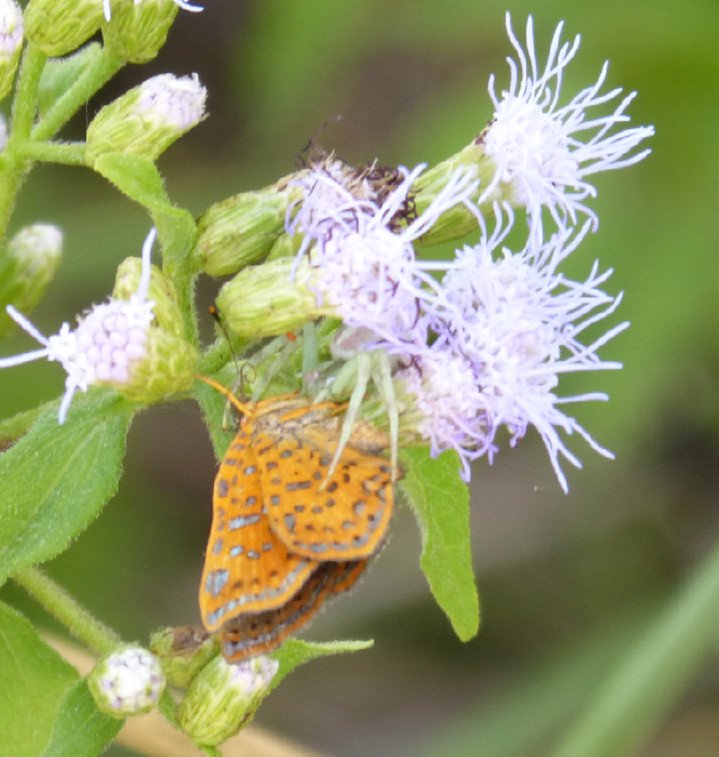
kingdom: Animalia
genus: Calephelis
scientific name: Calephelis perditalis
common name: Rounded Metalmark
